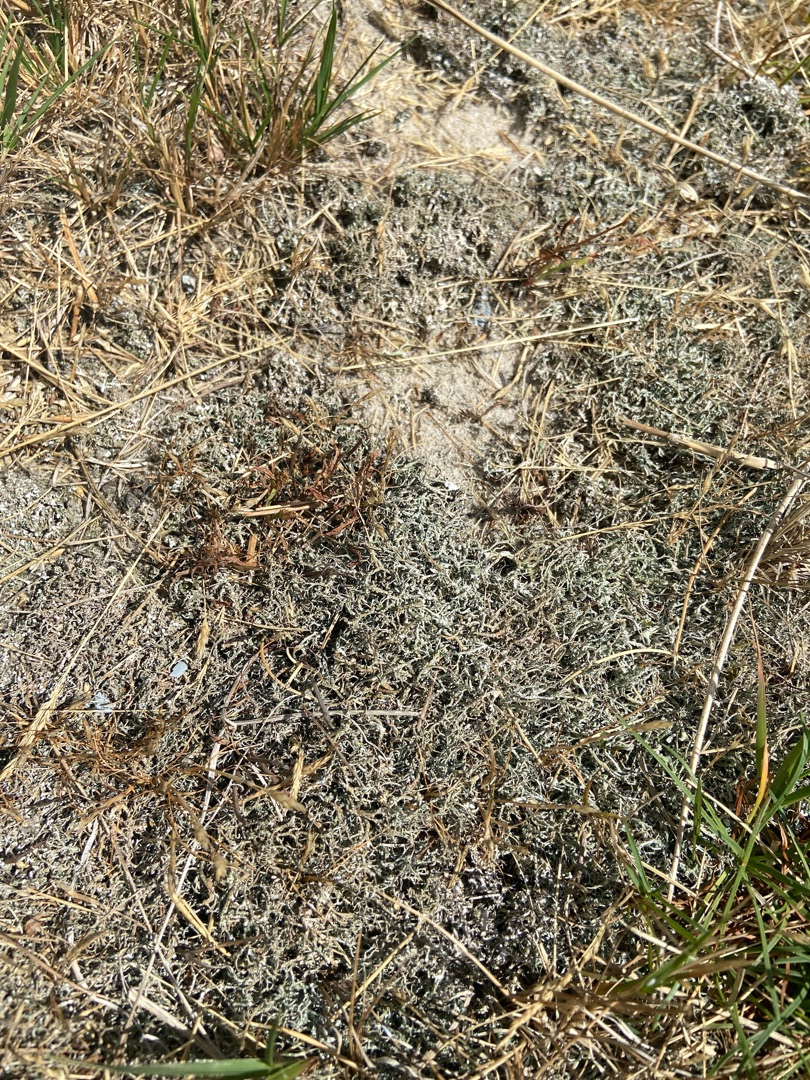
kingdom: Plantae
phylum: Tracheophyta
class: Liliopsida
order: Poales
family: Poaceae
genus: Aira
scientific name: Aira praecox
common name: Tidlig dværgbunke
